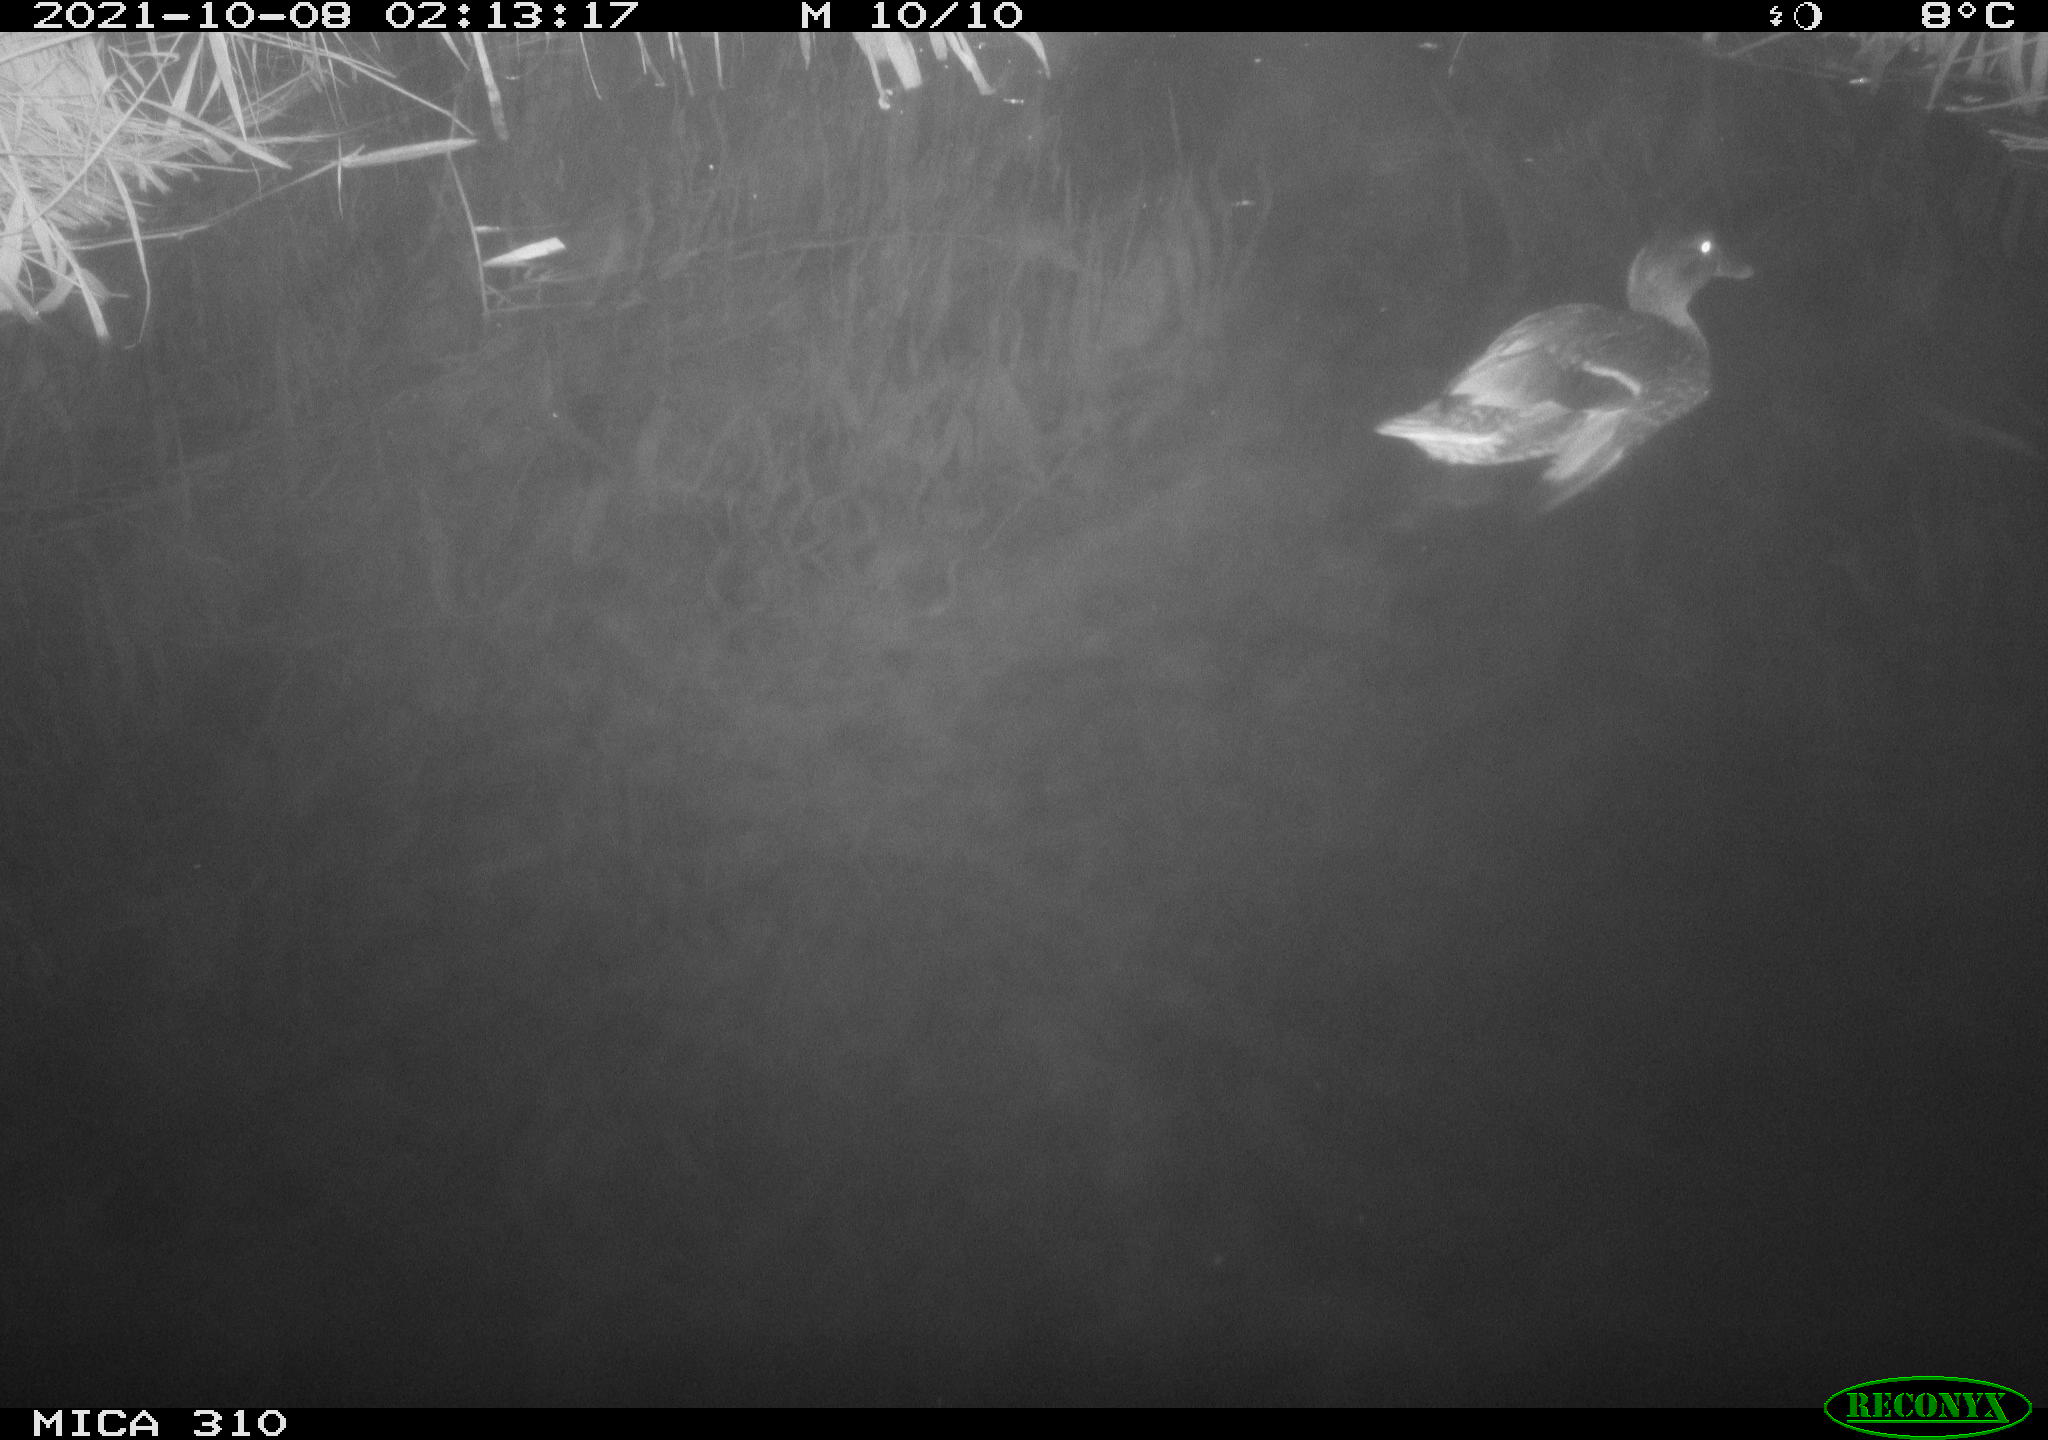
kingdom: Animalia
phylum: Chordata
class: Aves
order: Anseriformes
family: Anatidae
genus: Anas
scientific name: Anas platyrhynchos
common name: Mallard
